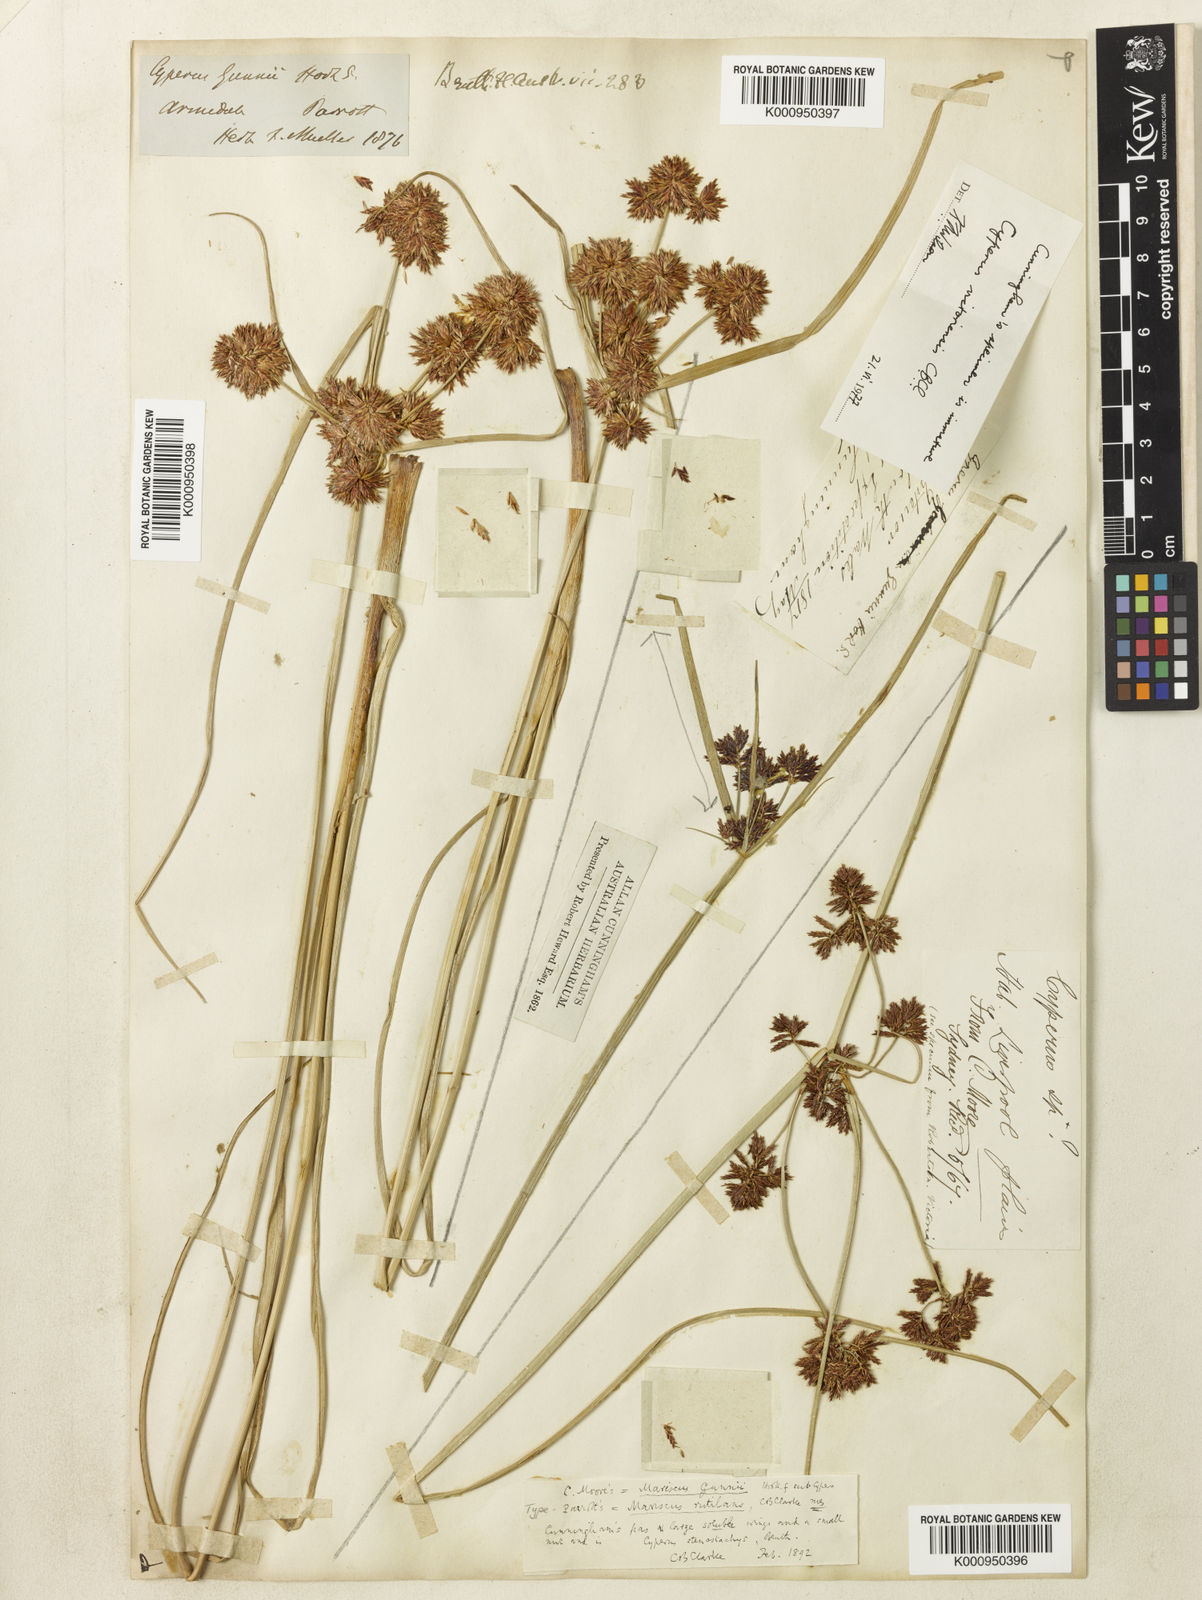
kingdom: Plantae
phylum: Tracheophyta
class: Liliopsida
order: Poales
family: Cyperaceae
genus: Cyperus
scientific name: Cyperus lhotskyanus
